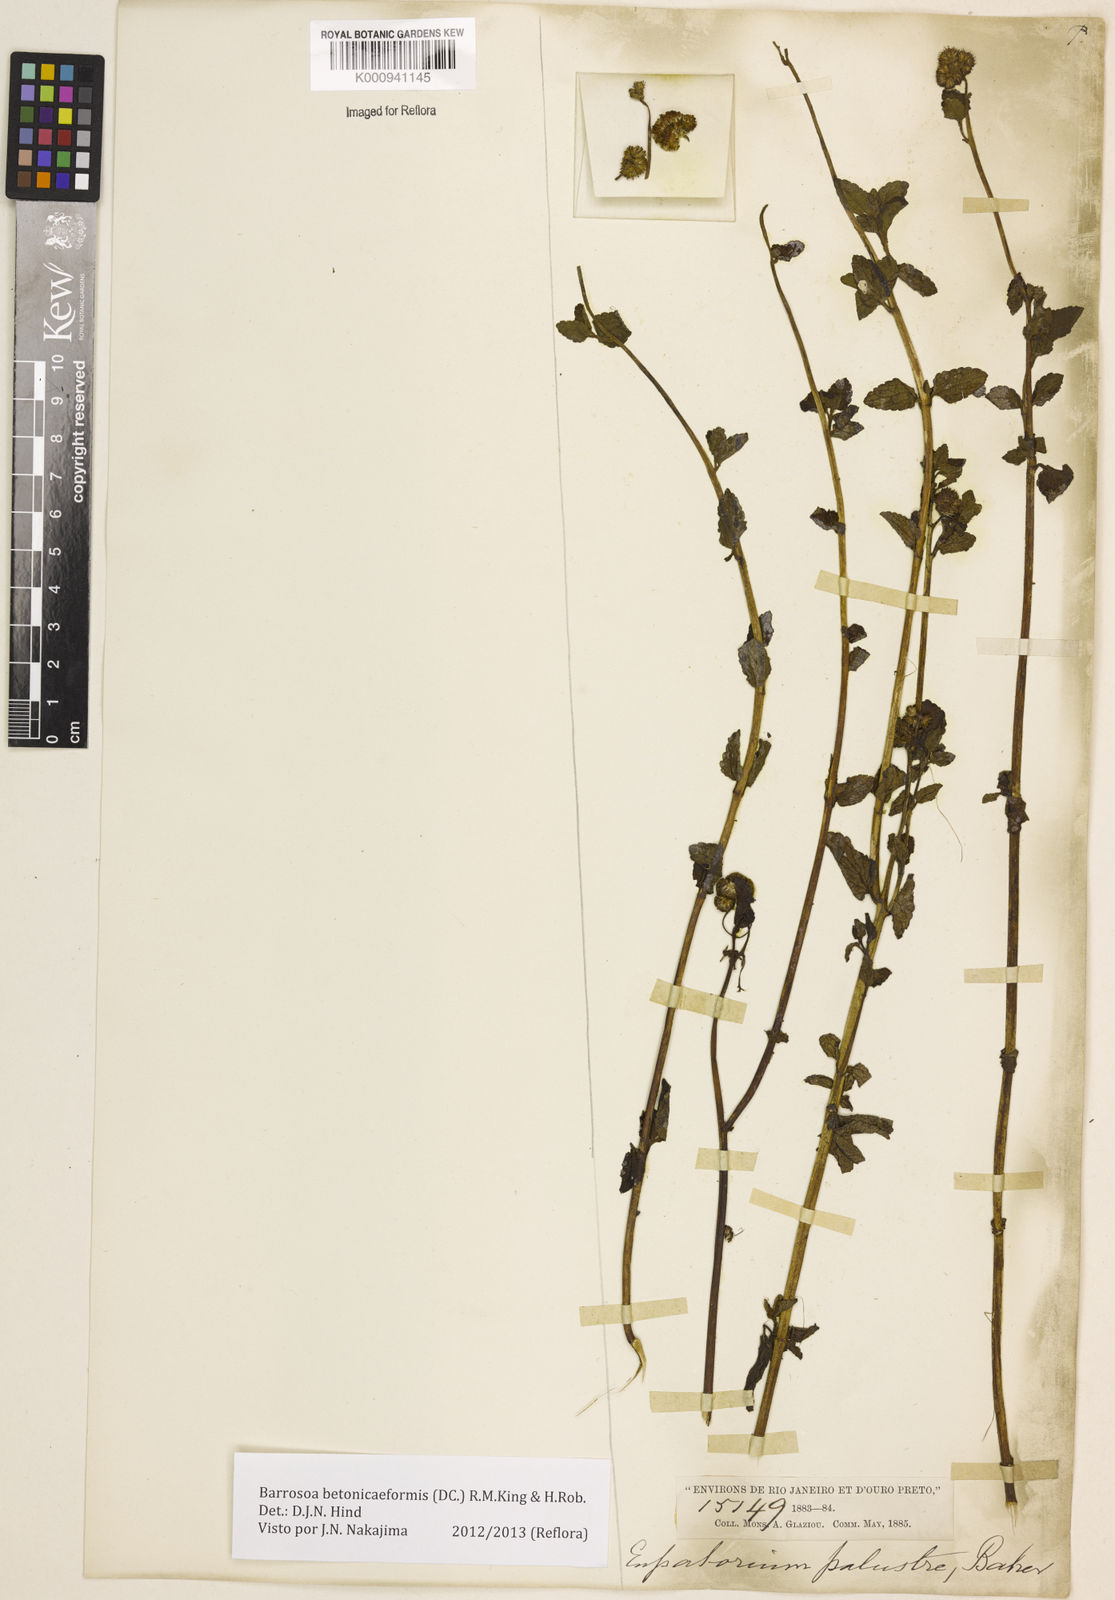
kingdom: Plantae
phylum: Tracheophyta
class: Magnoliopsida
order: Asterales
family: Asteraceae
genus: Barrosoa
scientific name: Barrosoa betoniciformis
